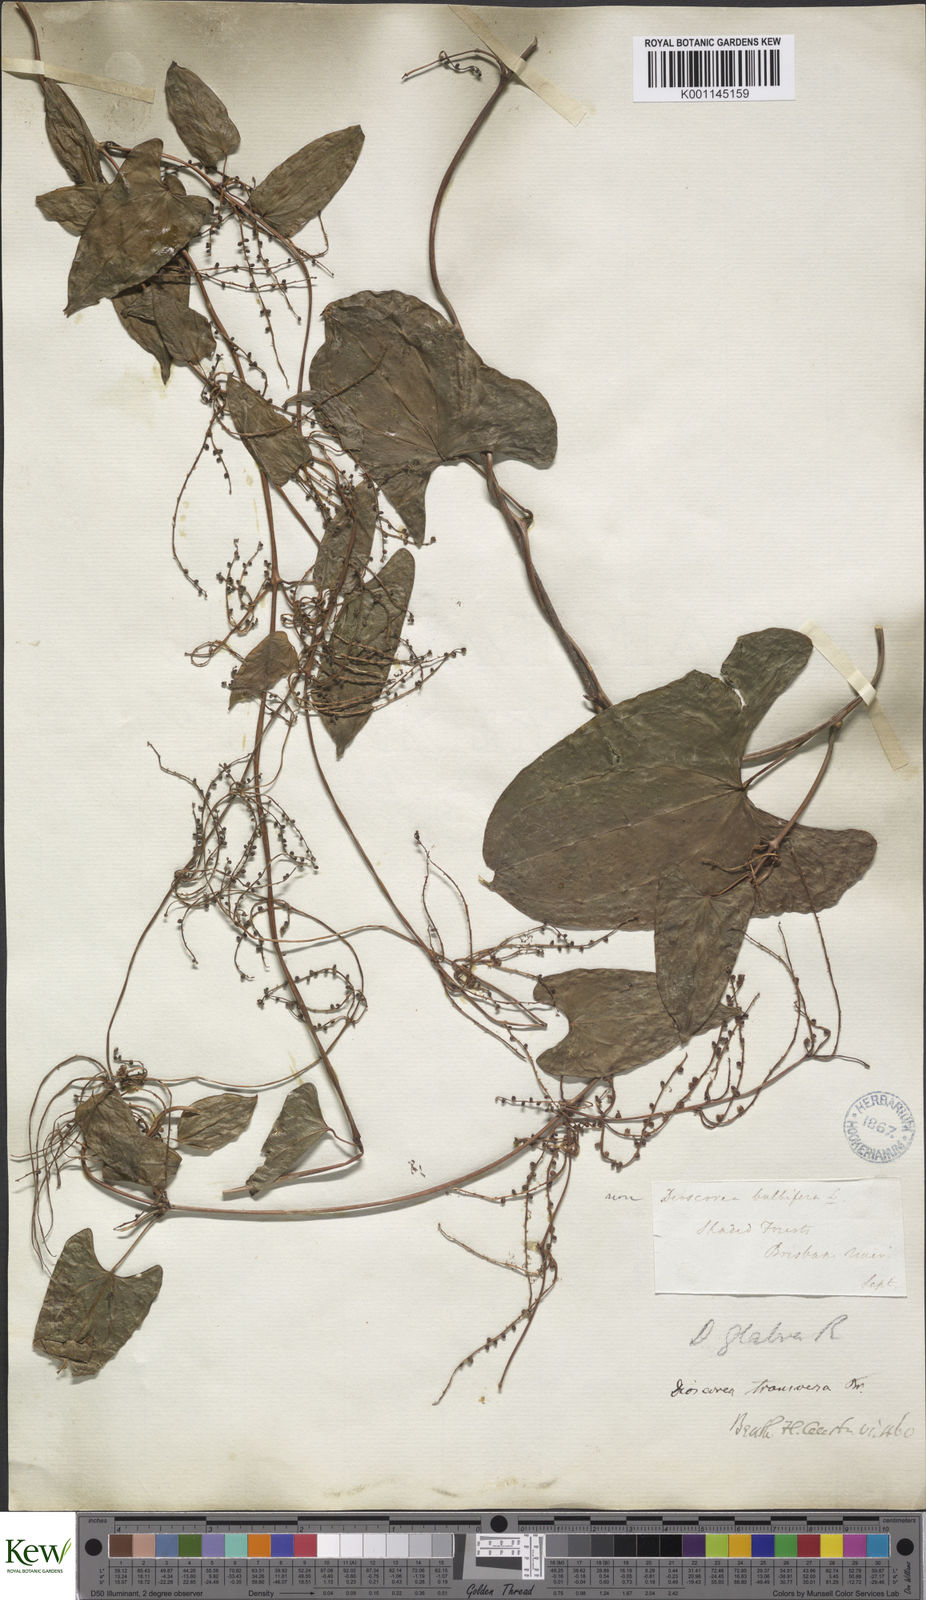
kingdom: Plantae
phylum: Tracheophyta
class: Liliopsida
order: Dioscoreales
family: Dioscoreaceae
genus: Dioscorea
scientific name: Dioscorea transversa
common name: Long yam
